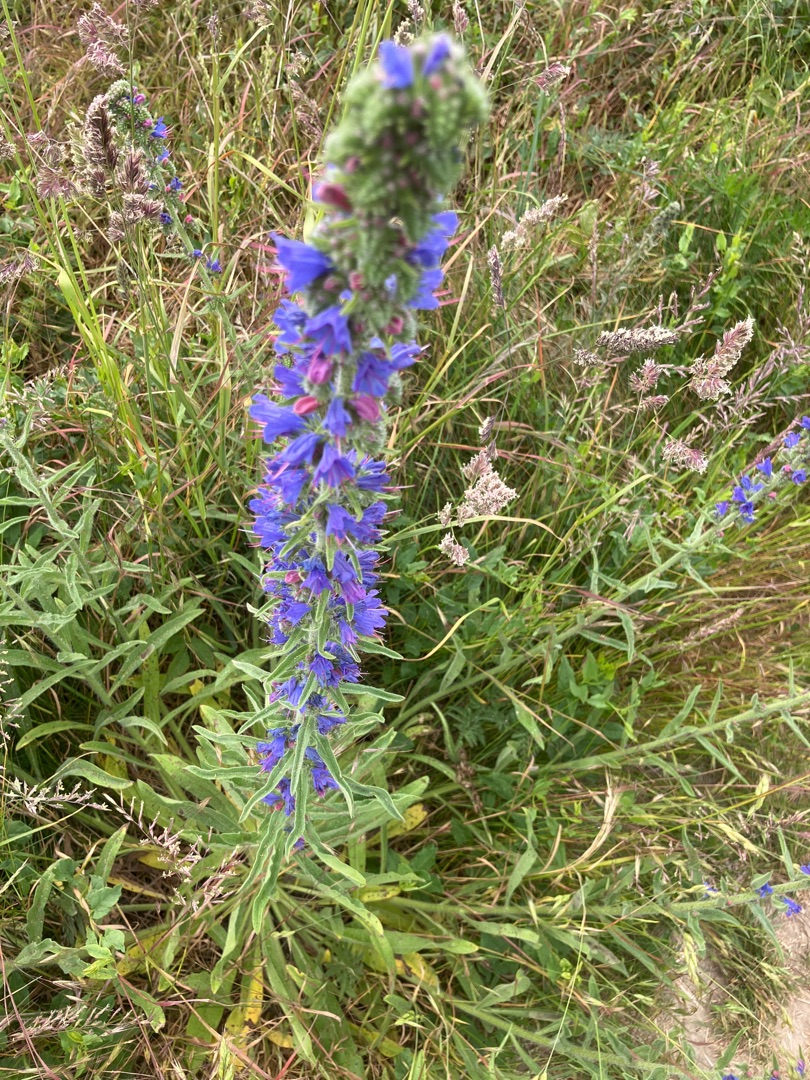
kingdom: Plantae
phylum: Tracheophyta
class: Magnoliopsida
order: Boraginales
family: Boraginaceae
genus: Echium
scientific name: Echium vulgare
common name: Slangehoved
